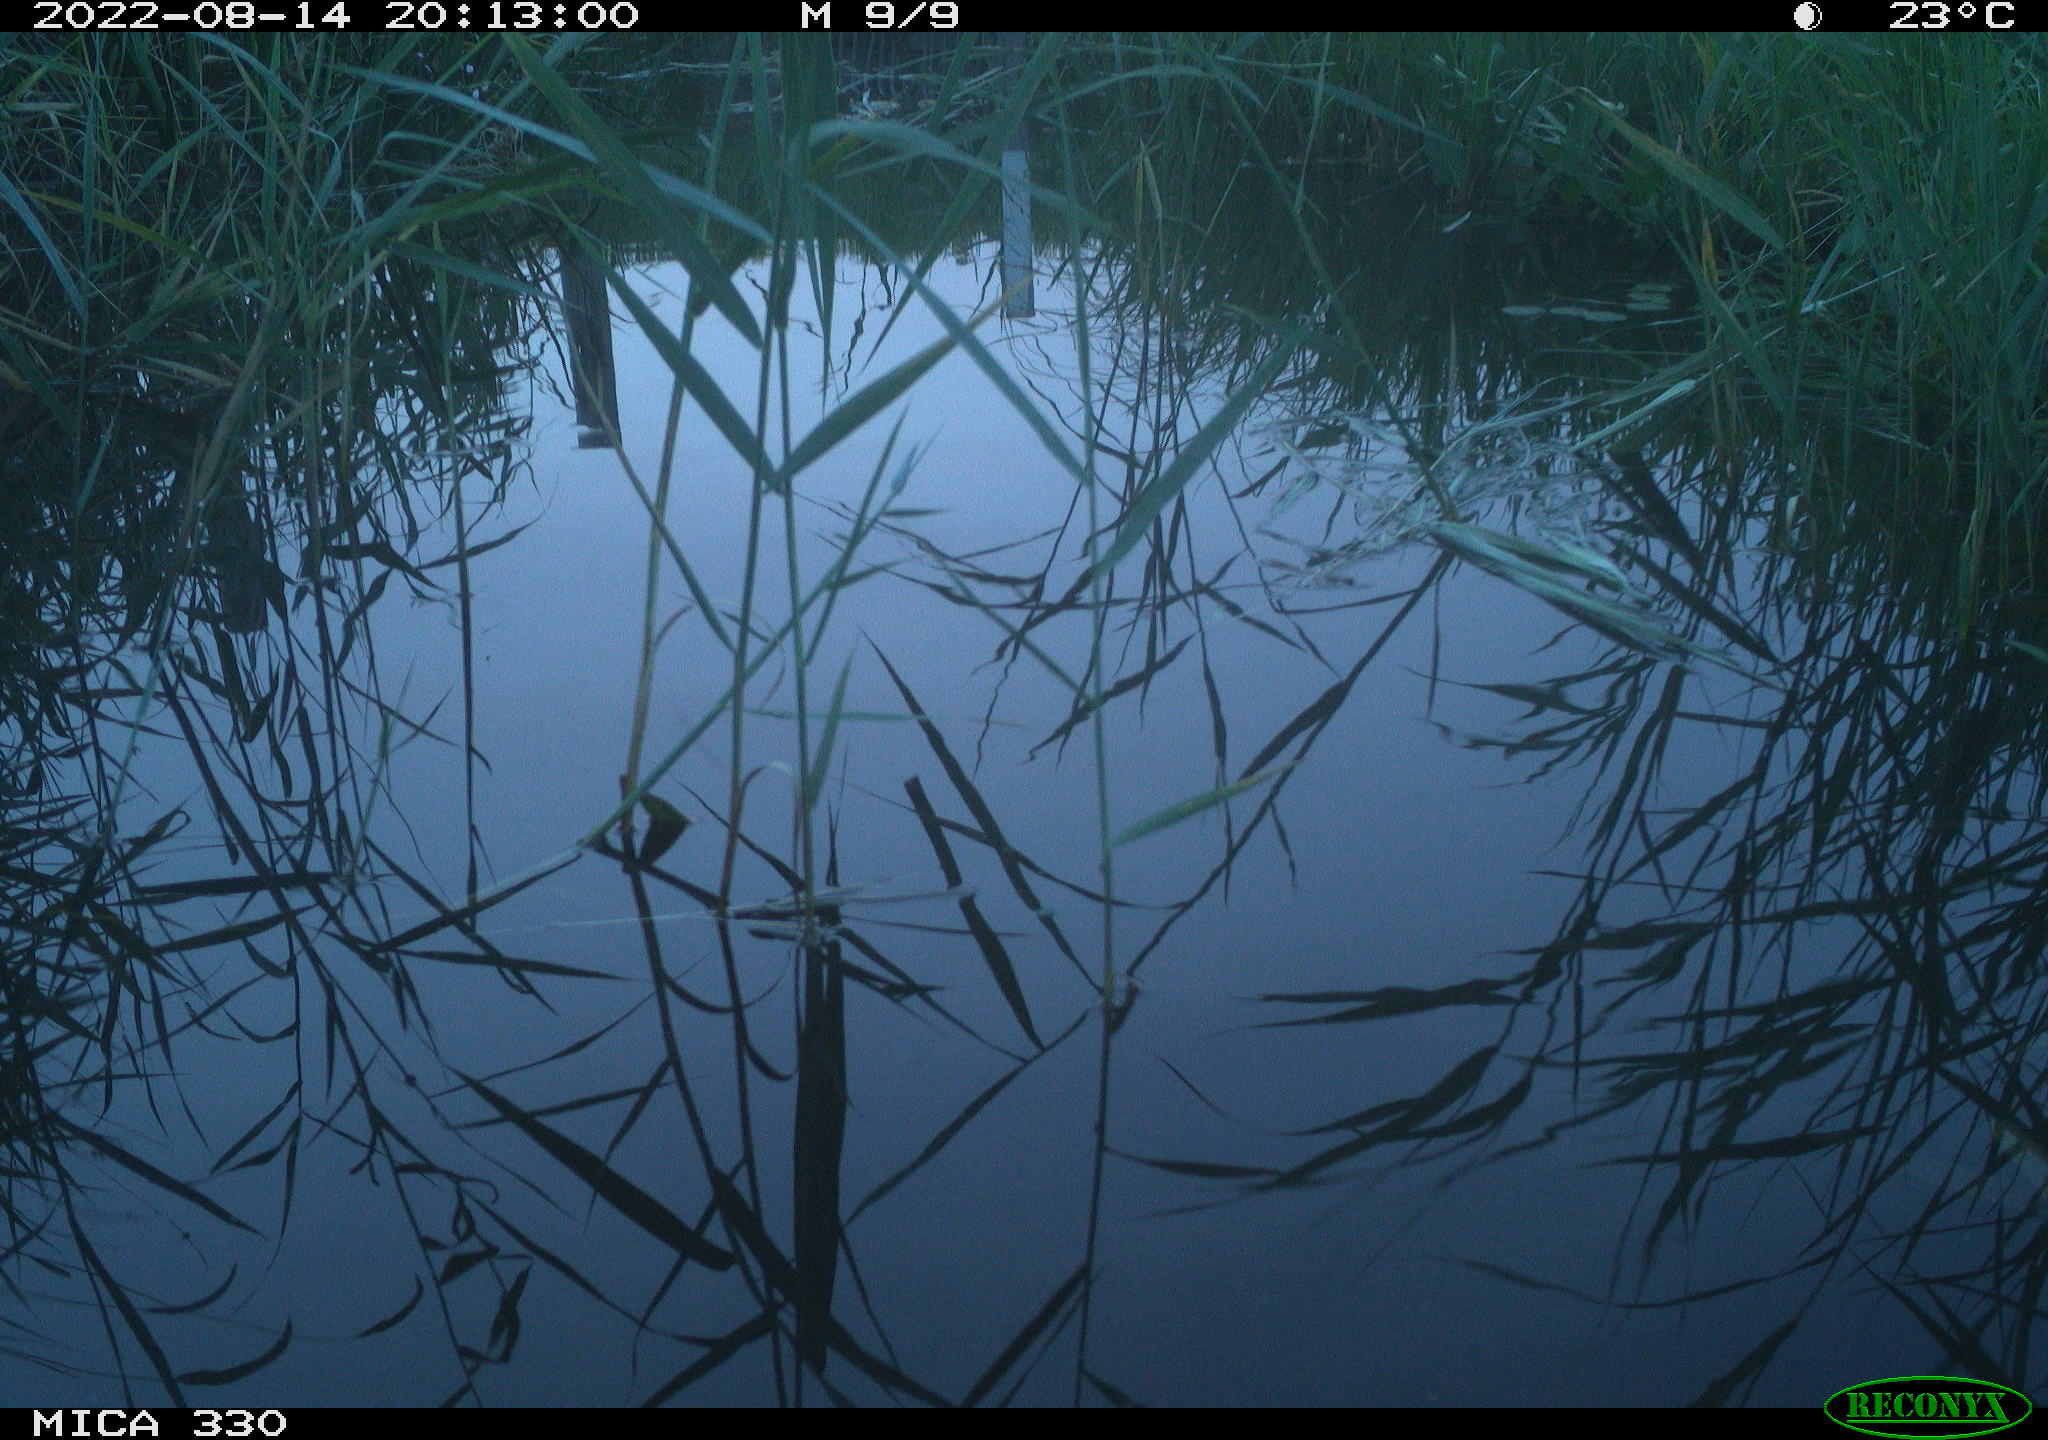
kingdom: Animalia
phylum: Chordata
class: Aves
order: Gruiformes
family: Rallidae
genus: Gallinula
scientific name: Gallinula chloropus
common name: Common moorhen
